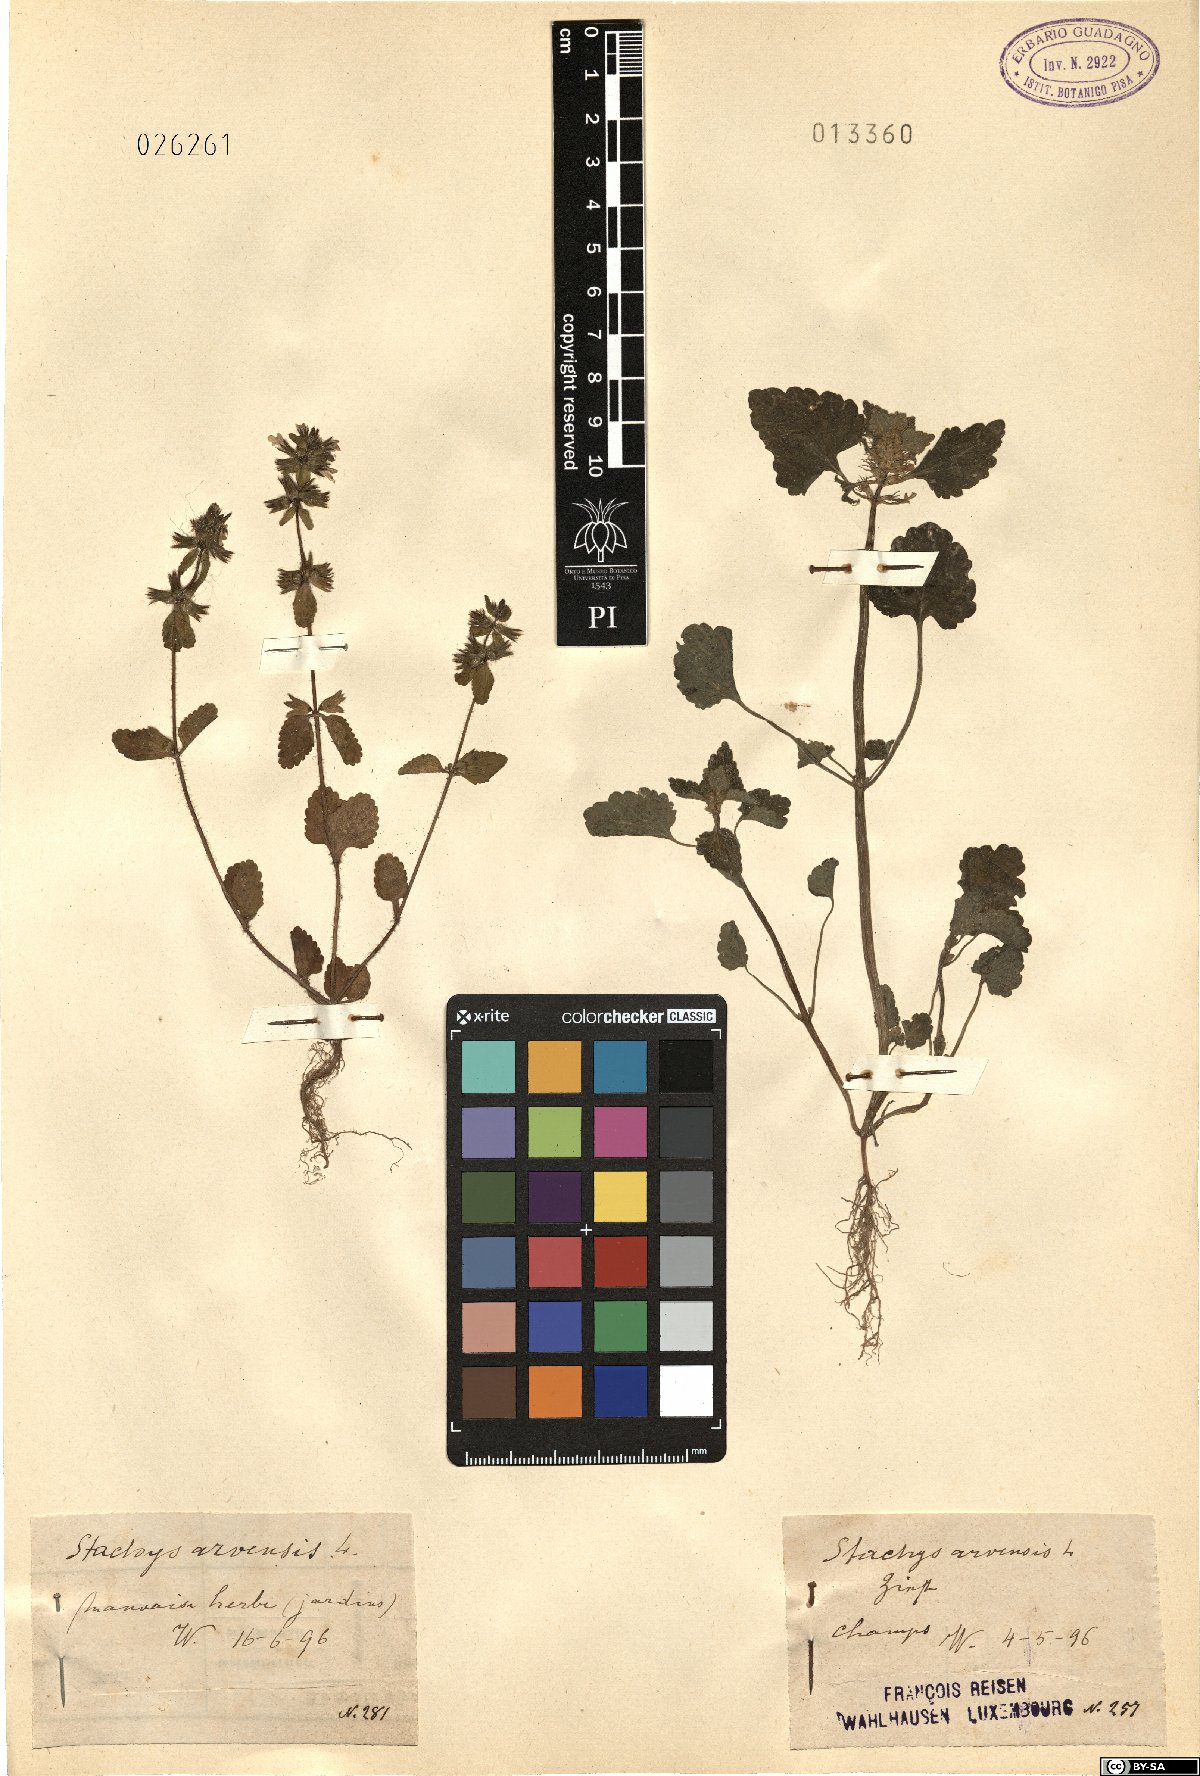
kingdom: Plantae
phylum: Tracheophyta
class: Magnoliopsida
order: Lamiales
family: Lamiaceae
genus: Stachys
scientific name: Stachys arvensis
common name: Field woundwort
